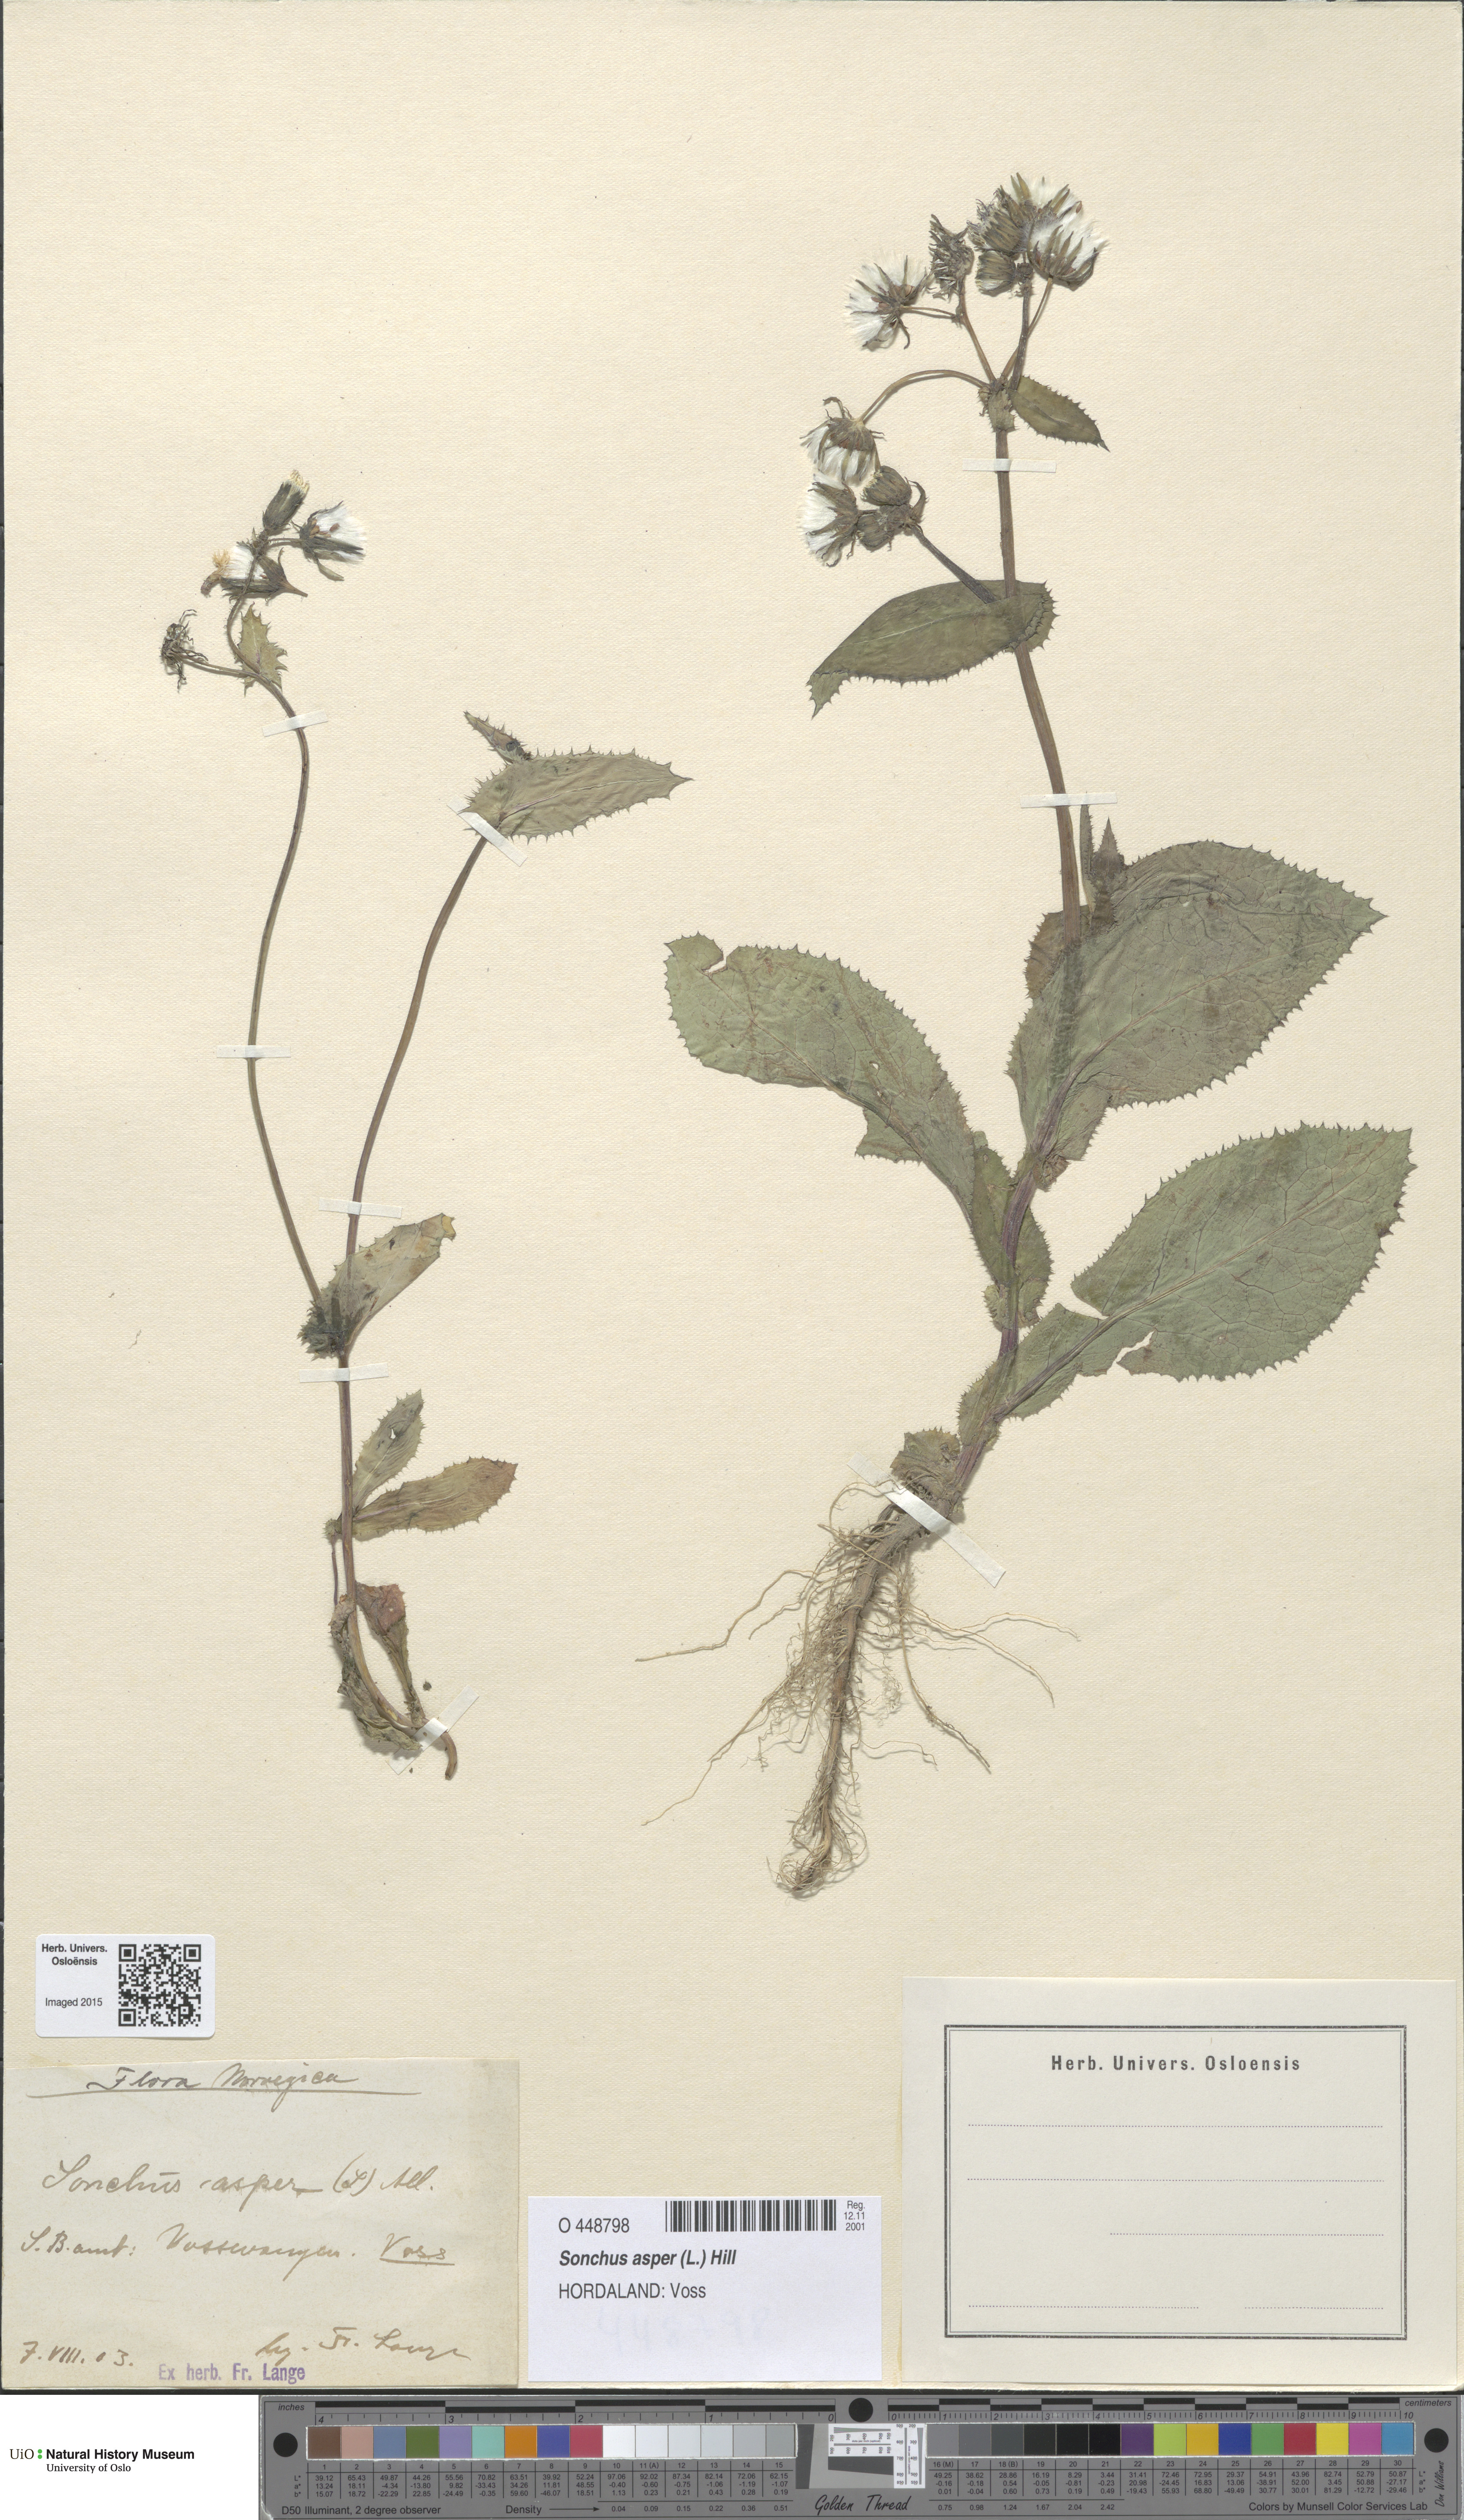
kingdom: Plantae
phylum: Tracheophyta
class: Magnoliopsida
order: Asterales
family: Asteraceae
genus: Sonchus
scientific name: Sonchus asper
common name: Prickly sow-thistle
